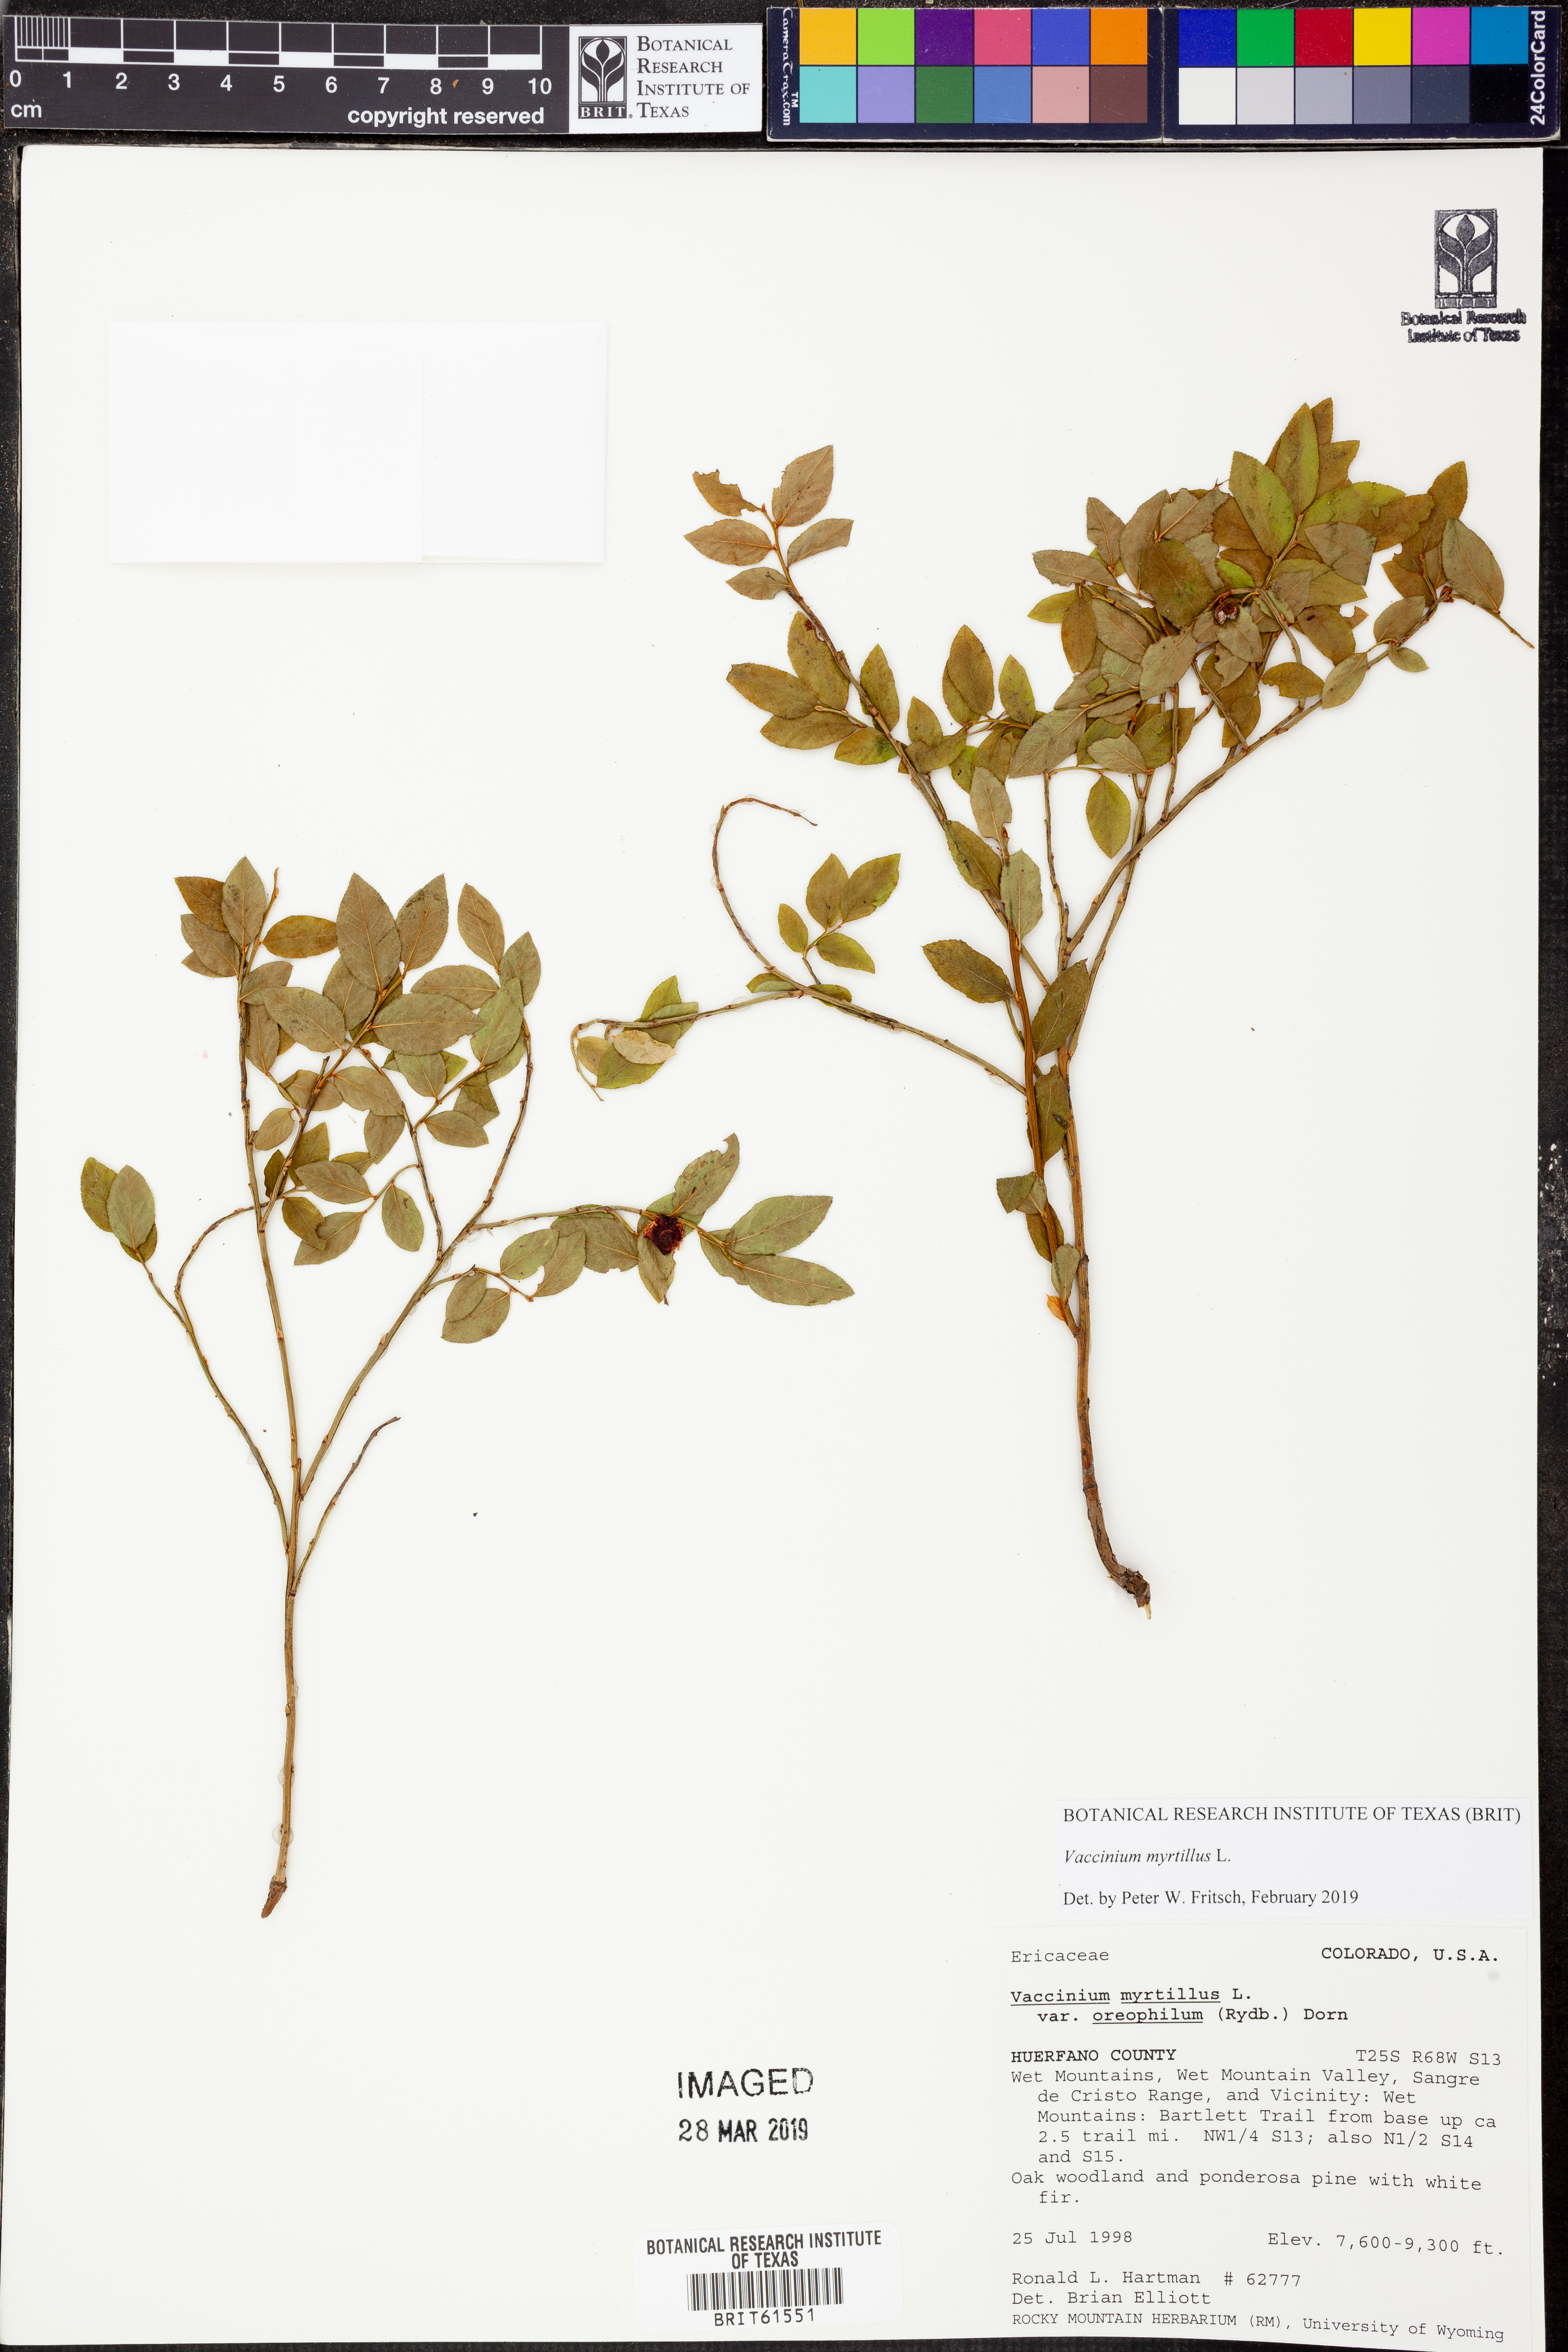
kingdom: Plantae
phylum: Tracheophyta
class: Magnoliopsida
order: Ericales
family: Ericaceae
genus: Vaccinium
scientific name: Vaccinium myrtillus
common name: Bilberry
